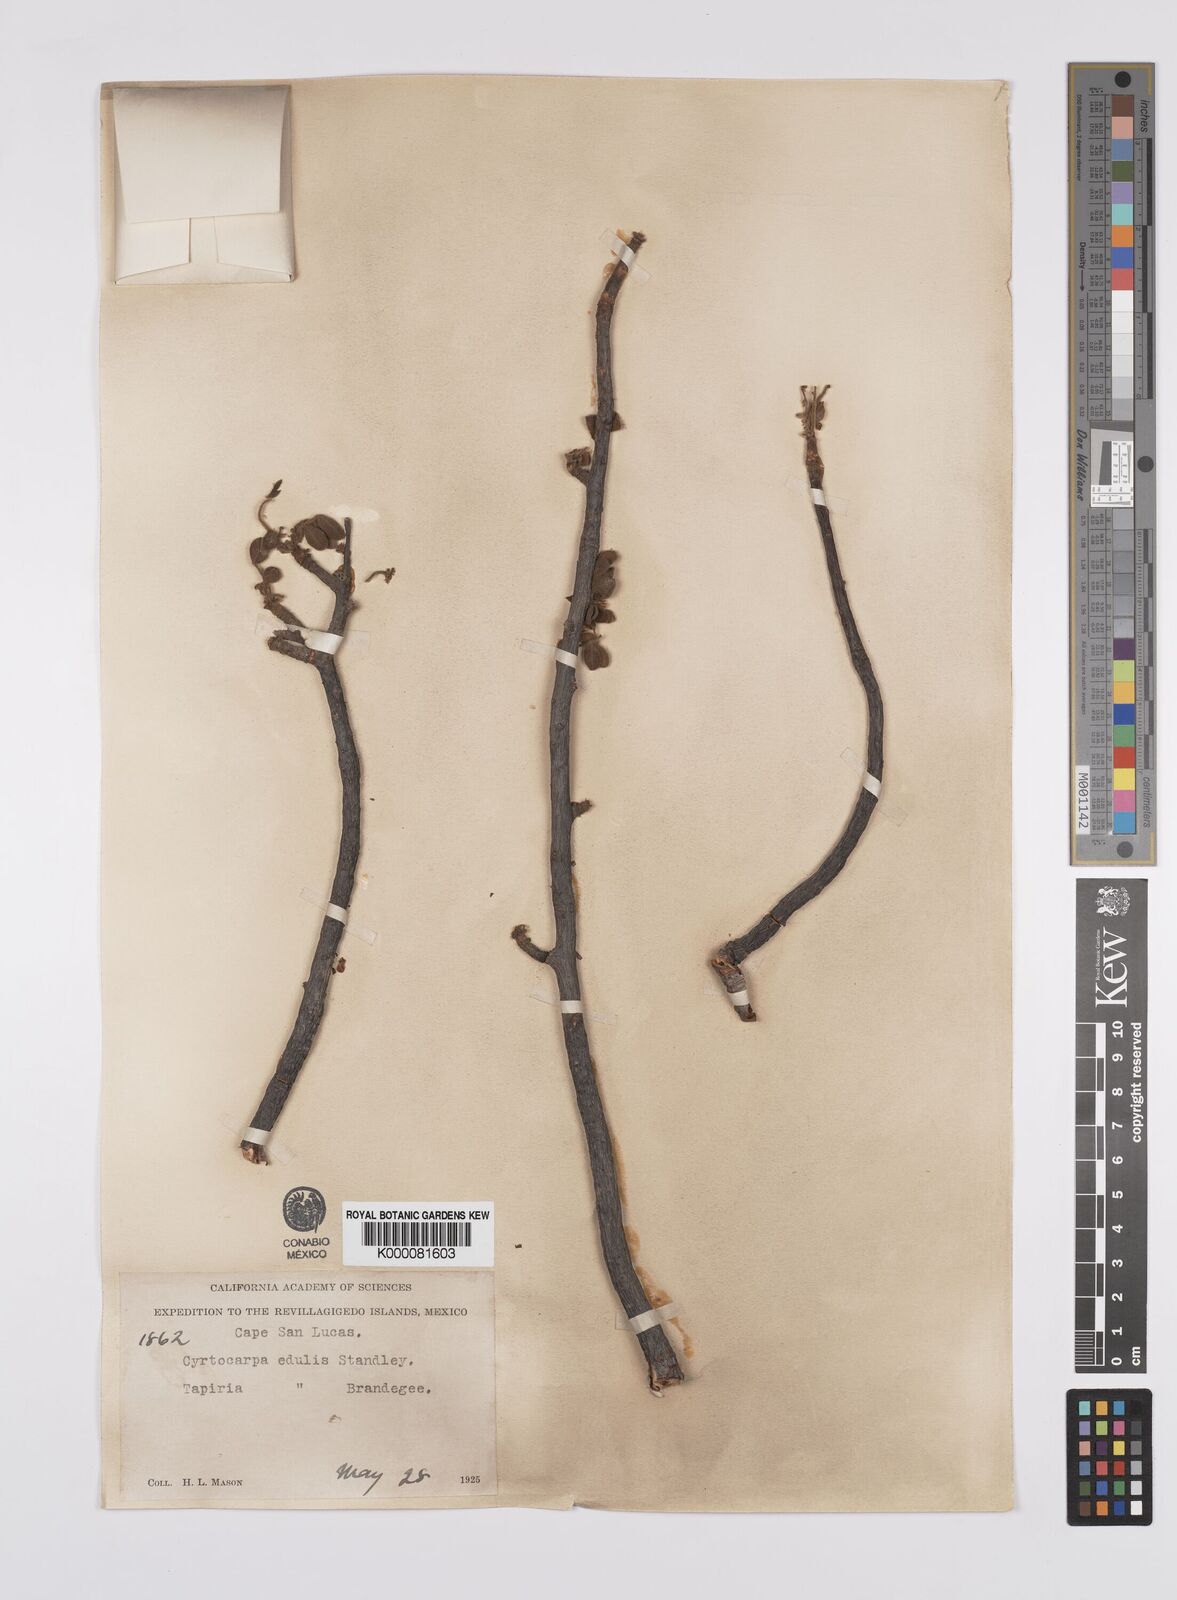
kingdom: Plantae
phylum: Tracheophyta
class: Magnoliopsida
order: Sapindales
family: Anacardiaceae
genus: Cyrtocarpa
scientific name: Cyrtocarpa edulis
